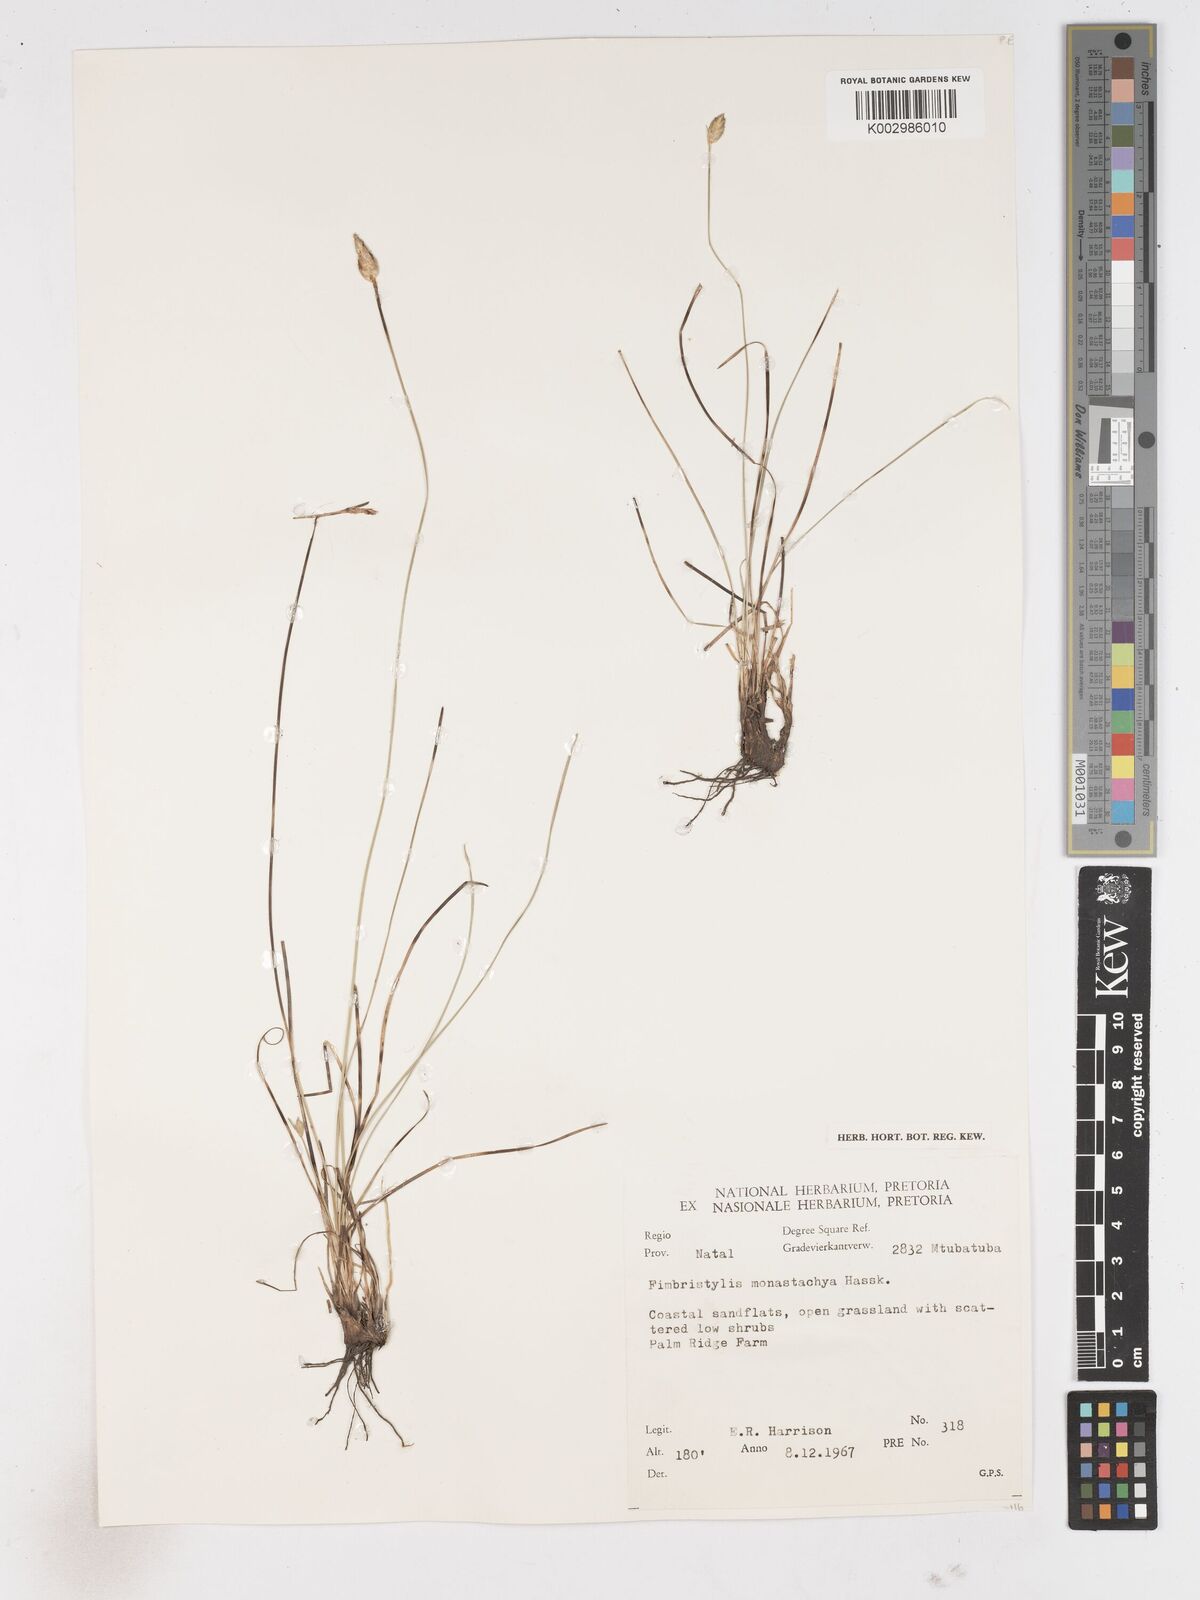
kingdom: Plantae
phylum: Tracheophyta
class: Liliopsida
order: Poales
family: Cyperaceae
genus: Abildgaardia
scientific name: Abildgaardia ovata
